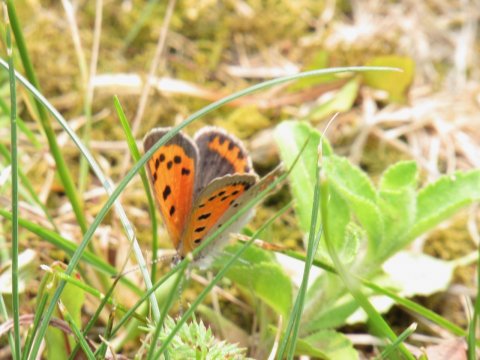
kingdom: Animalia
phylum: Arthropoda
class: Insecta
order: Lepidoptera
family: Lycaenidae
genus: Lycaena
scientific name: Lycaena phlaeas
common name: American Copper
